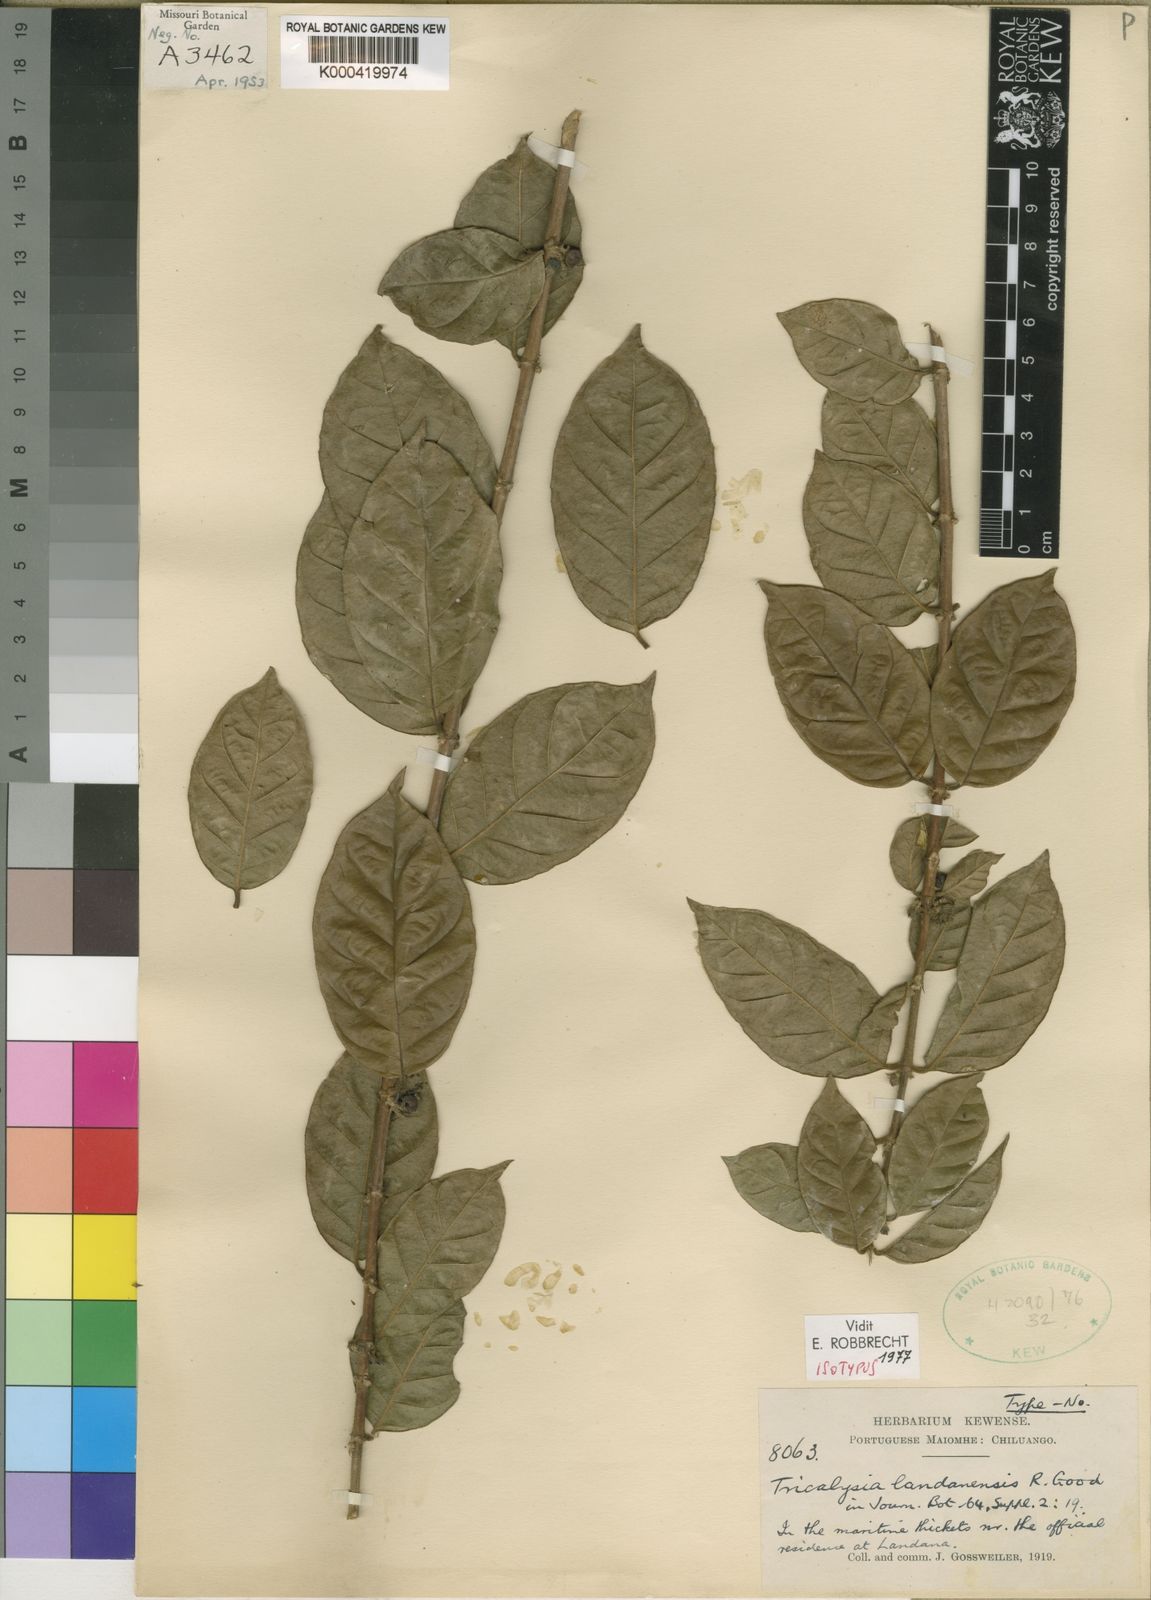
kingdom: Plantae
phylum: Tracheophyta
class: Magnoliopsida
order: Gentianales
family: Rubiaceae
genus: Tricalysia
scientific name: Tricalysia landanensis
